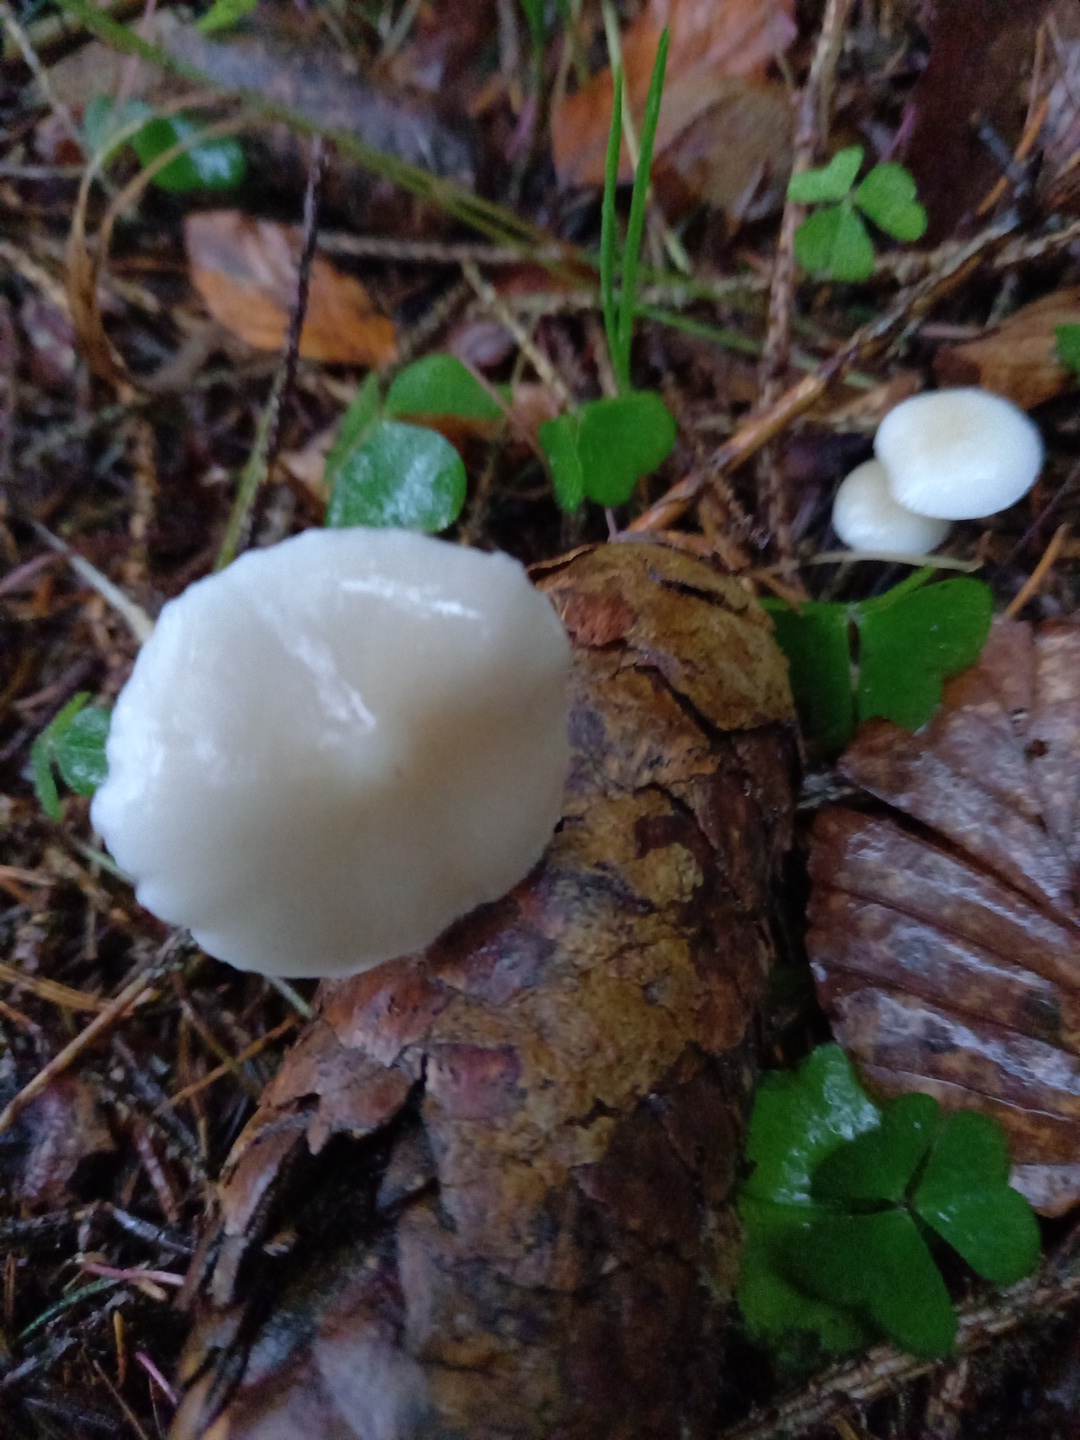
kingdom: Fungi
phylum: Basidiomycota
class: Agaricomycetes
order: Agaricales
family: Physalacriaceae
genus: Strobilurus
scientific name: Strobilurus esculentus
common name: gran-koglehat
